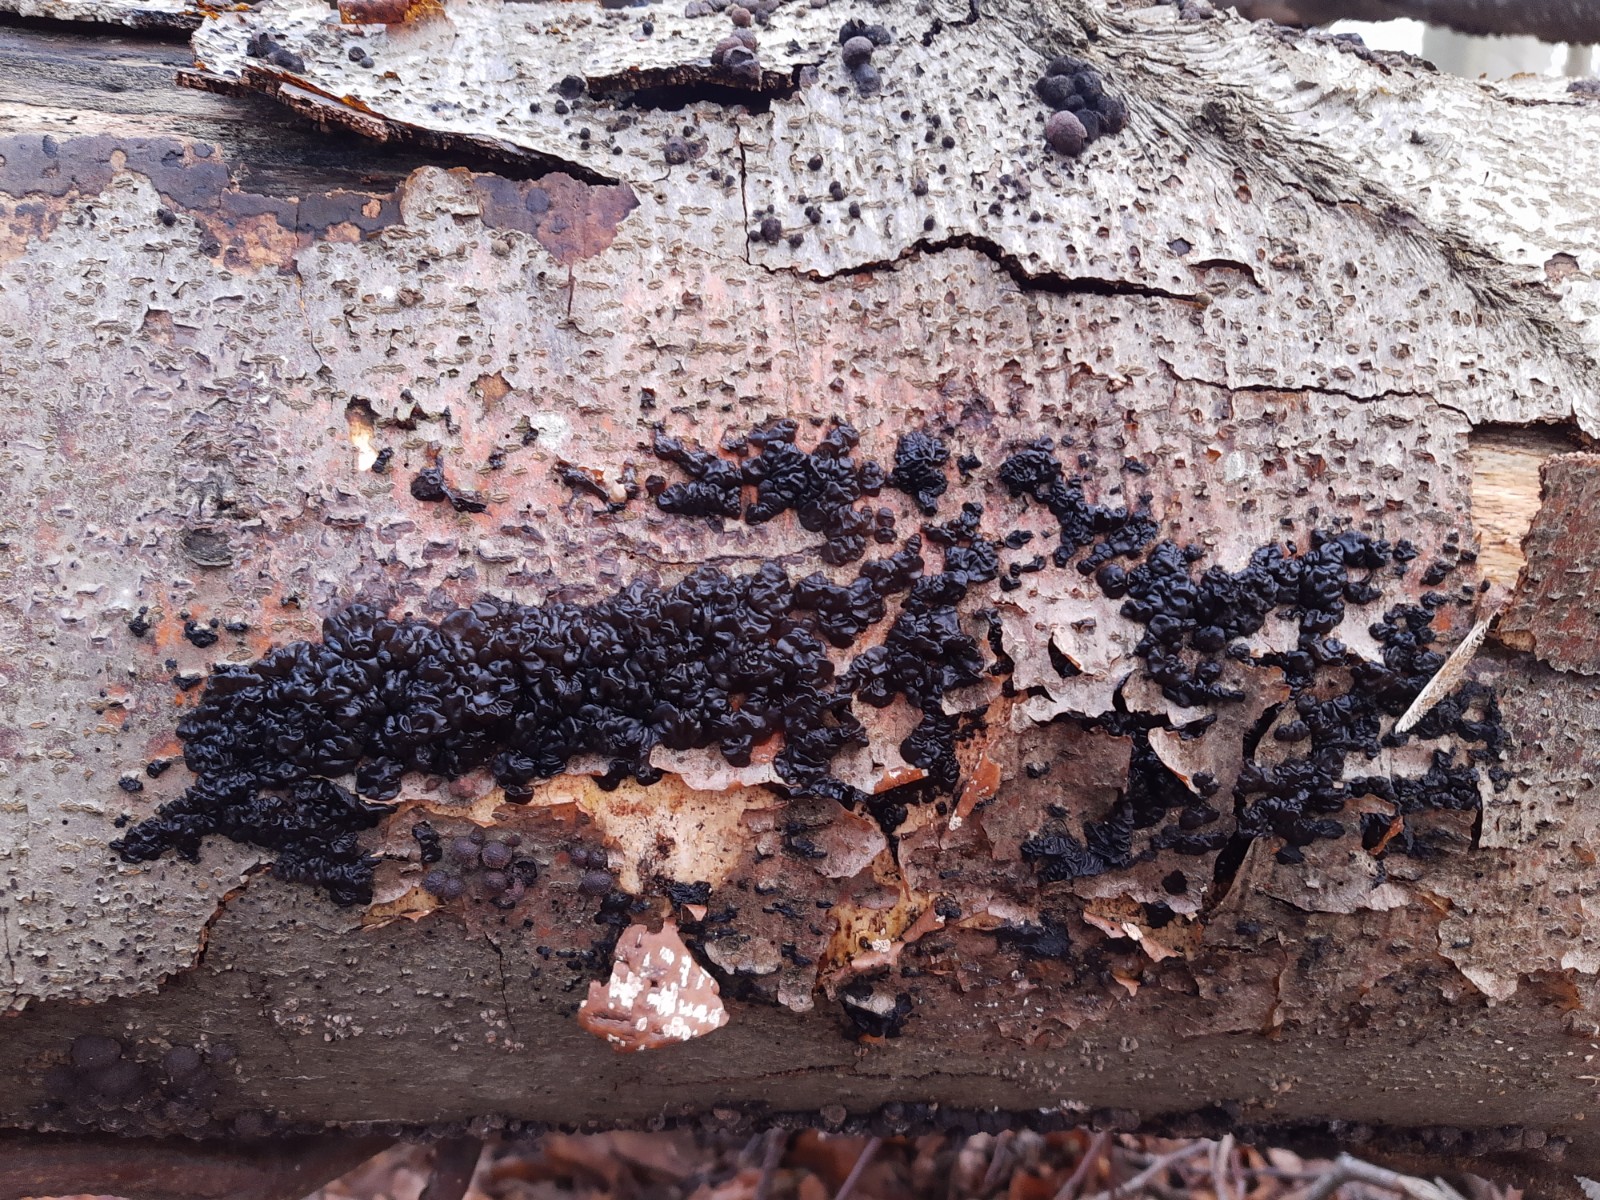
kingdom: Fungi
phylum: Basidiomycota
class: Agaricomycetes
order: Auriculariales
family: Auriculariaceae
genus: Exidia
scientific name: Exidia nigricans
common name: almindelig bævretop
